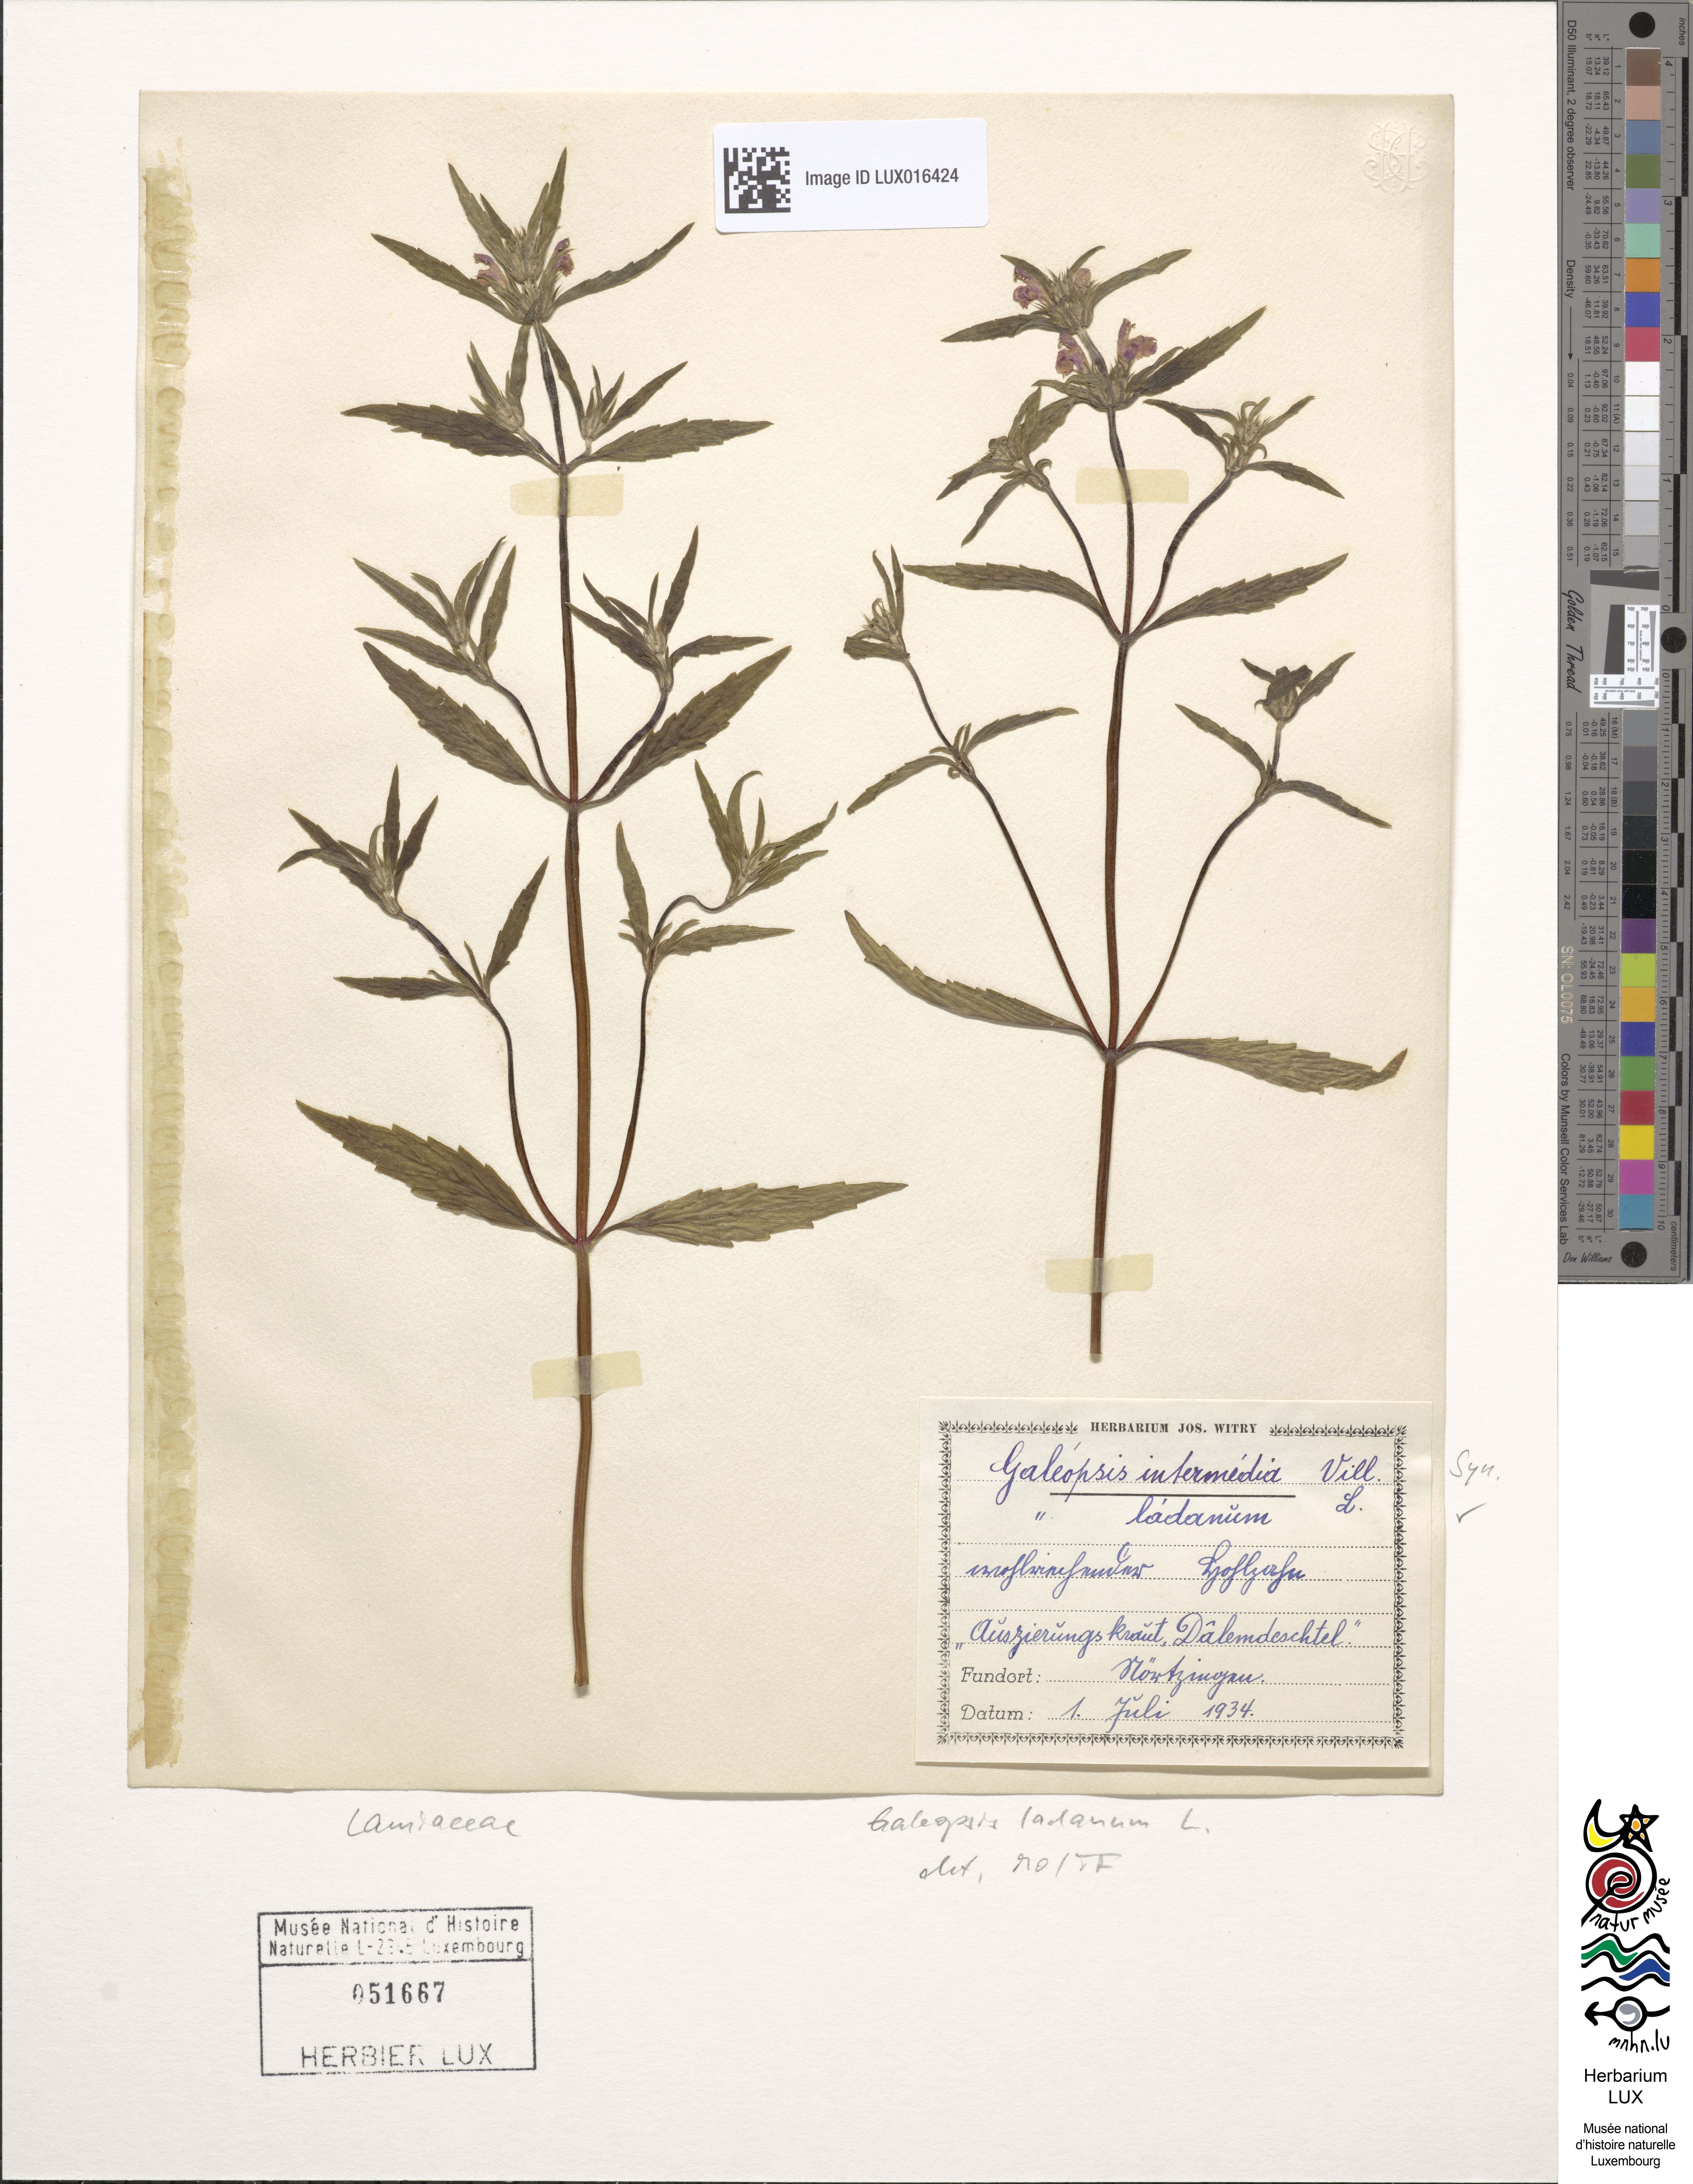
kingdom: Plantae
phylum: Tracheophyta
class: Magnoliopsida
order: Lamiales
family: Lamiaceae
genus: Galeopsis
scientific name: Galeopsis ladanum
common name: Broad-leaved hemp-nettle
